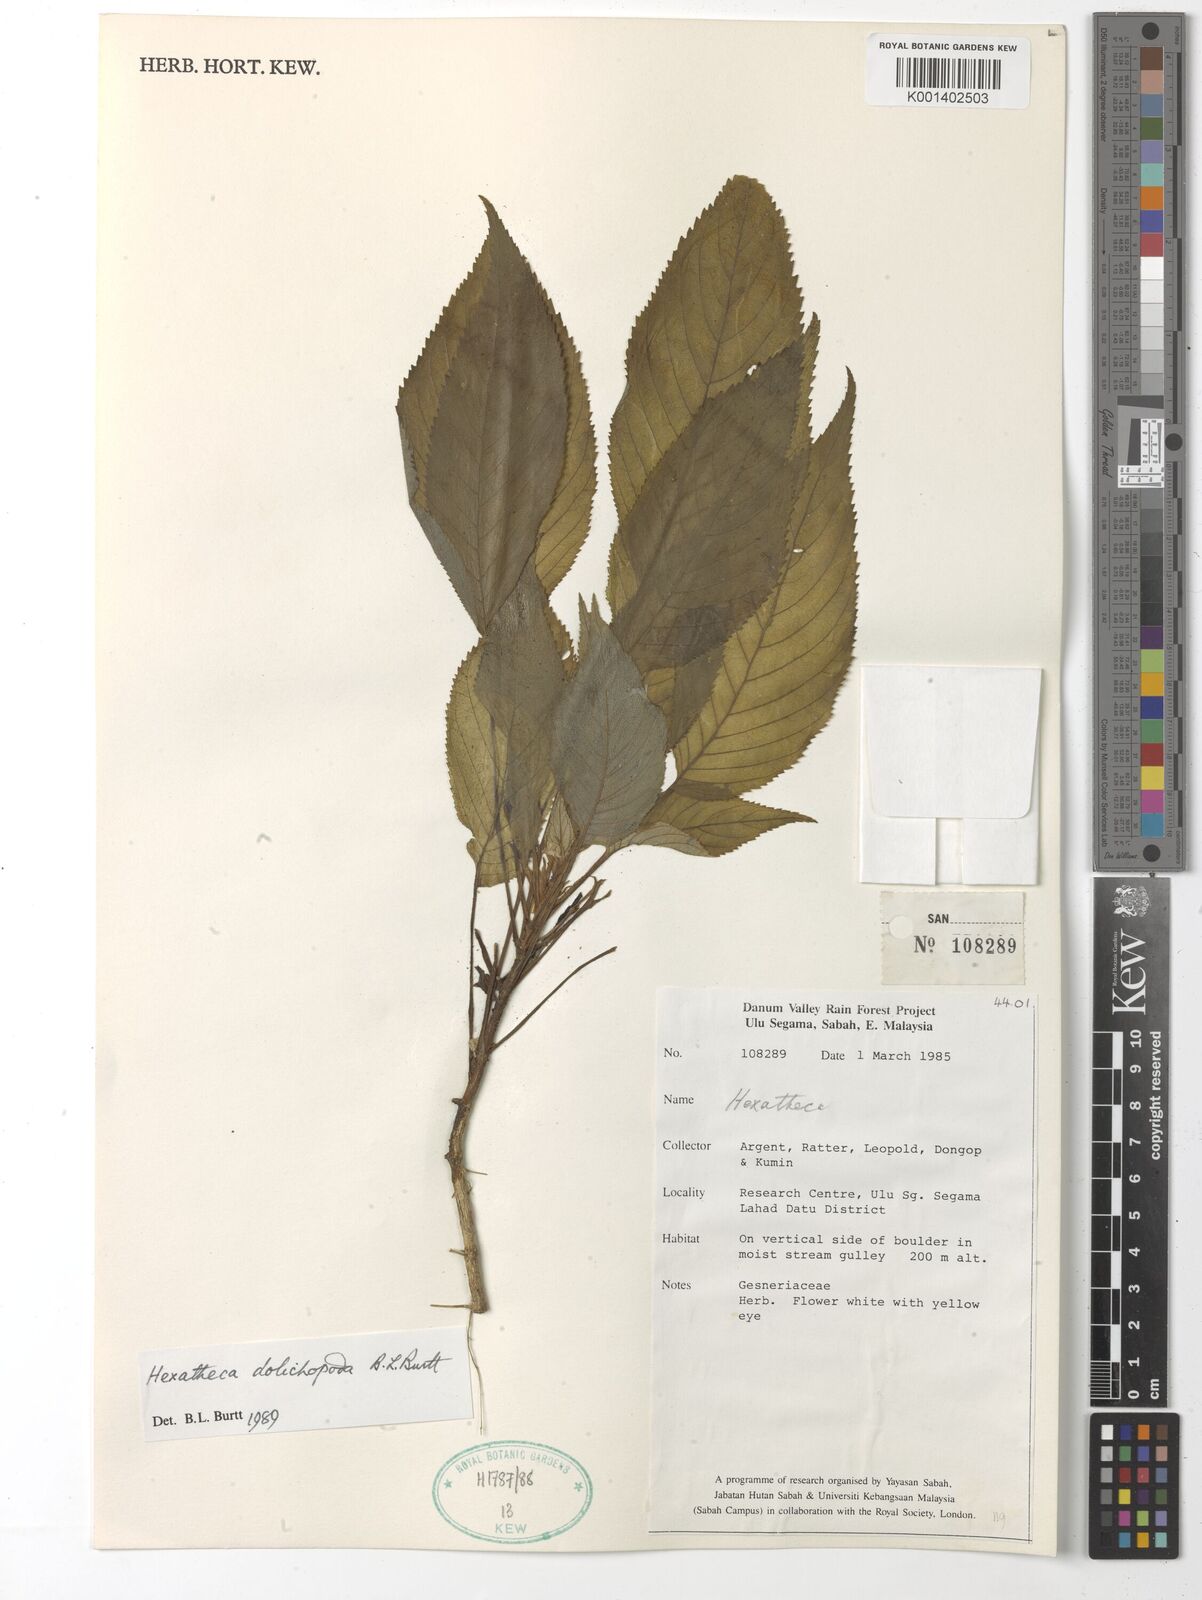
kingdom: Plantae
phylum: Tracheophyta
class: Magnoliopsida
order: Lamiales
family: Gesneriaceae
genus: Hexatheca
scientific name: Hexatheca dolichopoda
